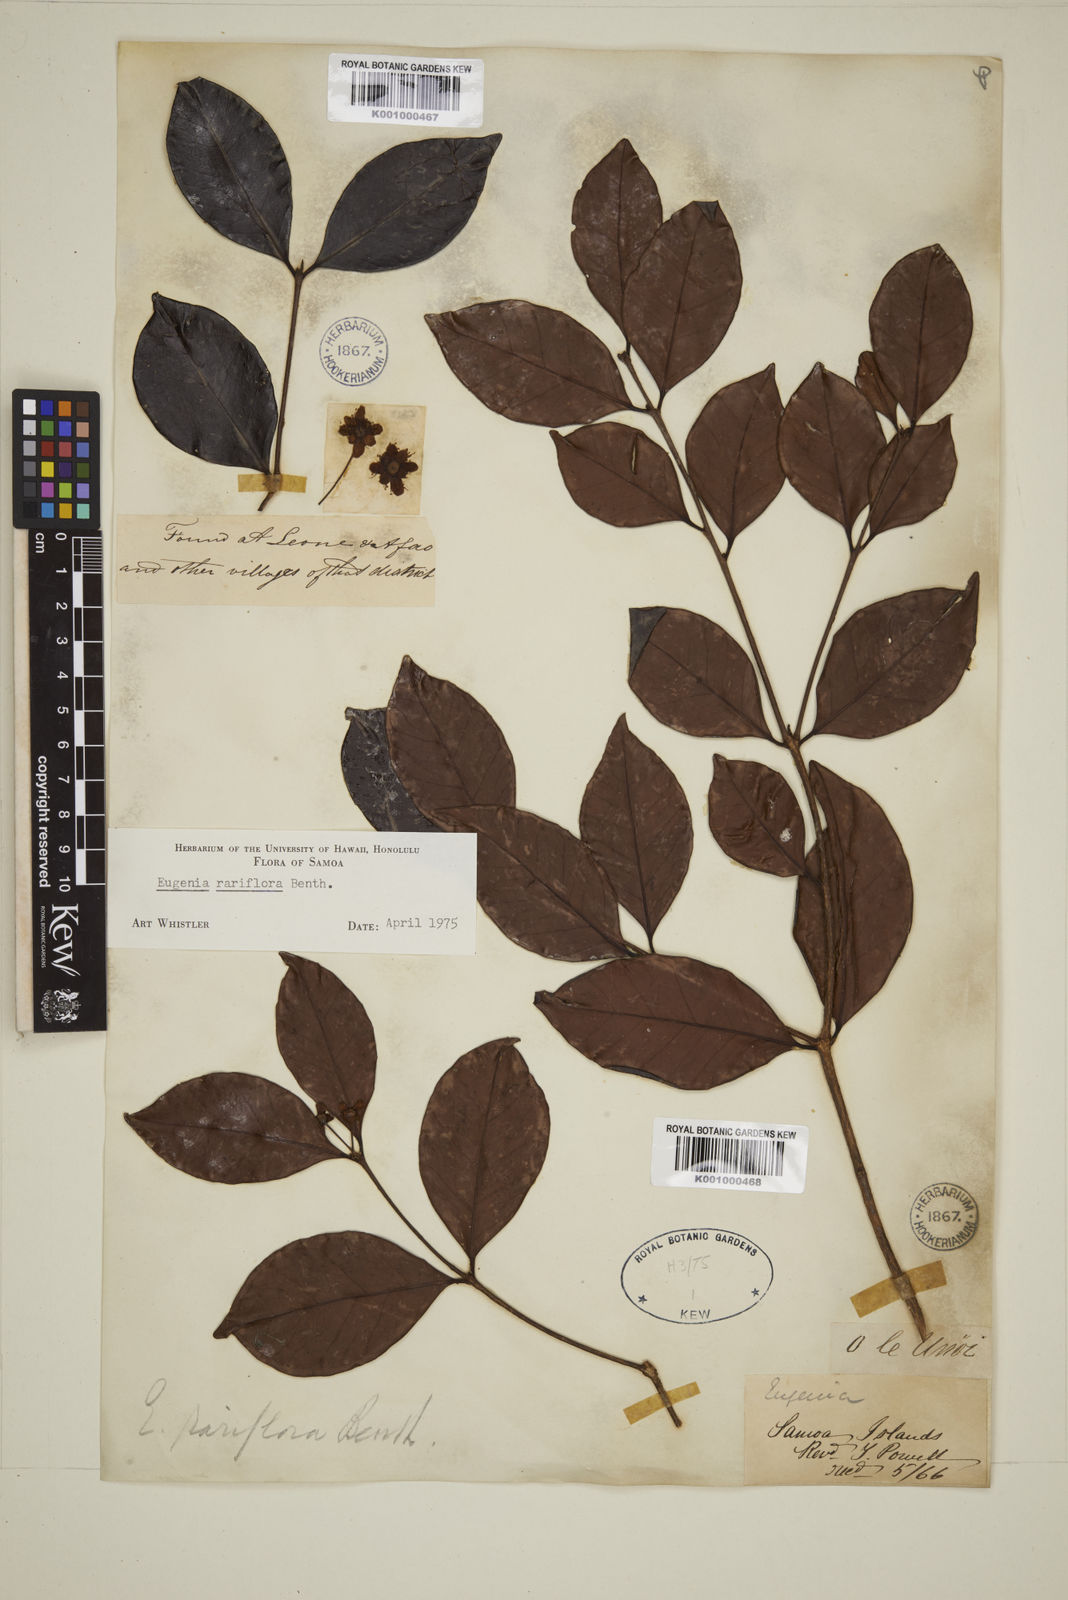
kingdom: Plantae
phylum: Tracheophyta
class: Magnoliopsida
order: Myrtales
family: Myrtaceae
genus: Eugenia
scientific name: Eugenia reinwardtiana
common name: Cedar bay-cherry
